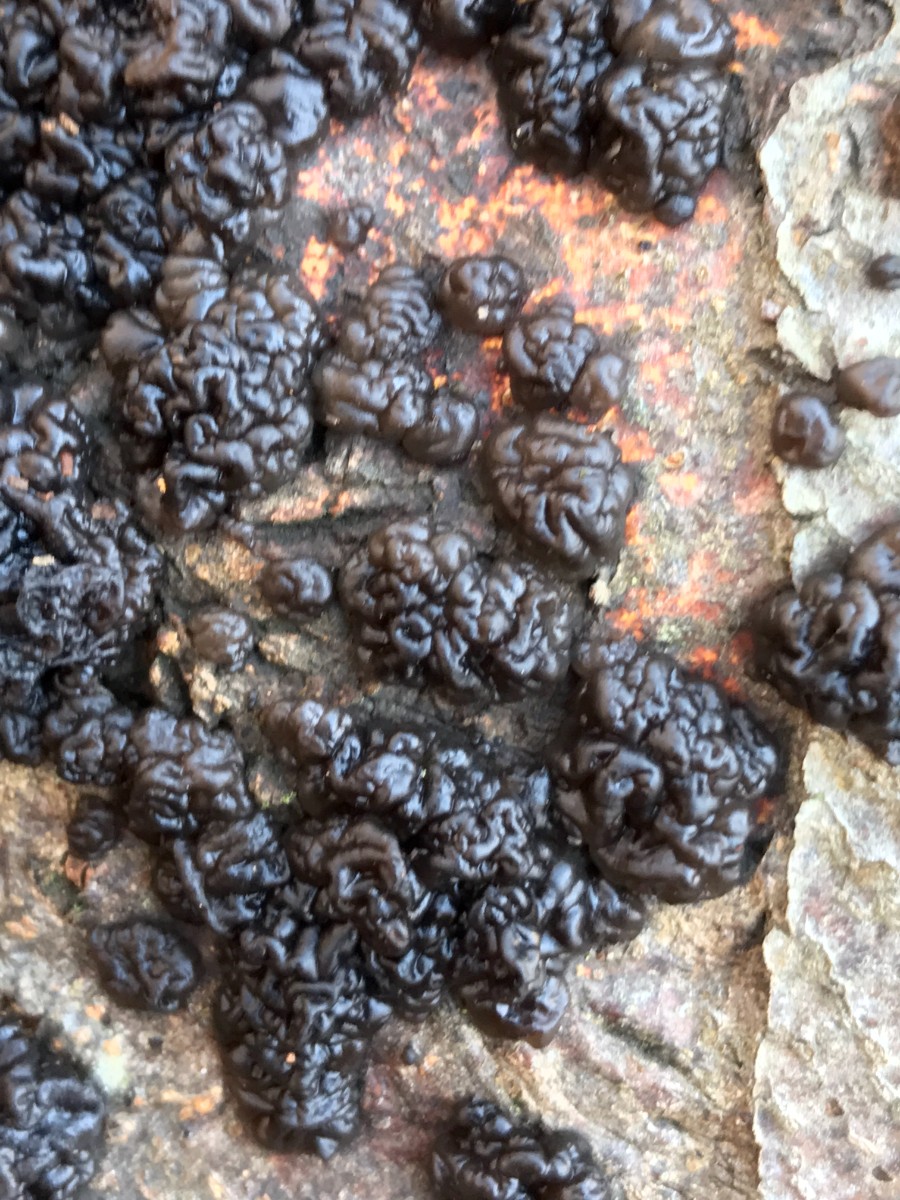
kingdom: Fungi
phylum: Basidiomycota
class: Agaricomycetes
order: Auriculariales
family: Auriculariaceae
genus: Exidia
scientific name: Exidia nigricans
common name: almindelig bævretop
